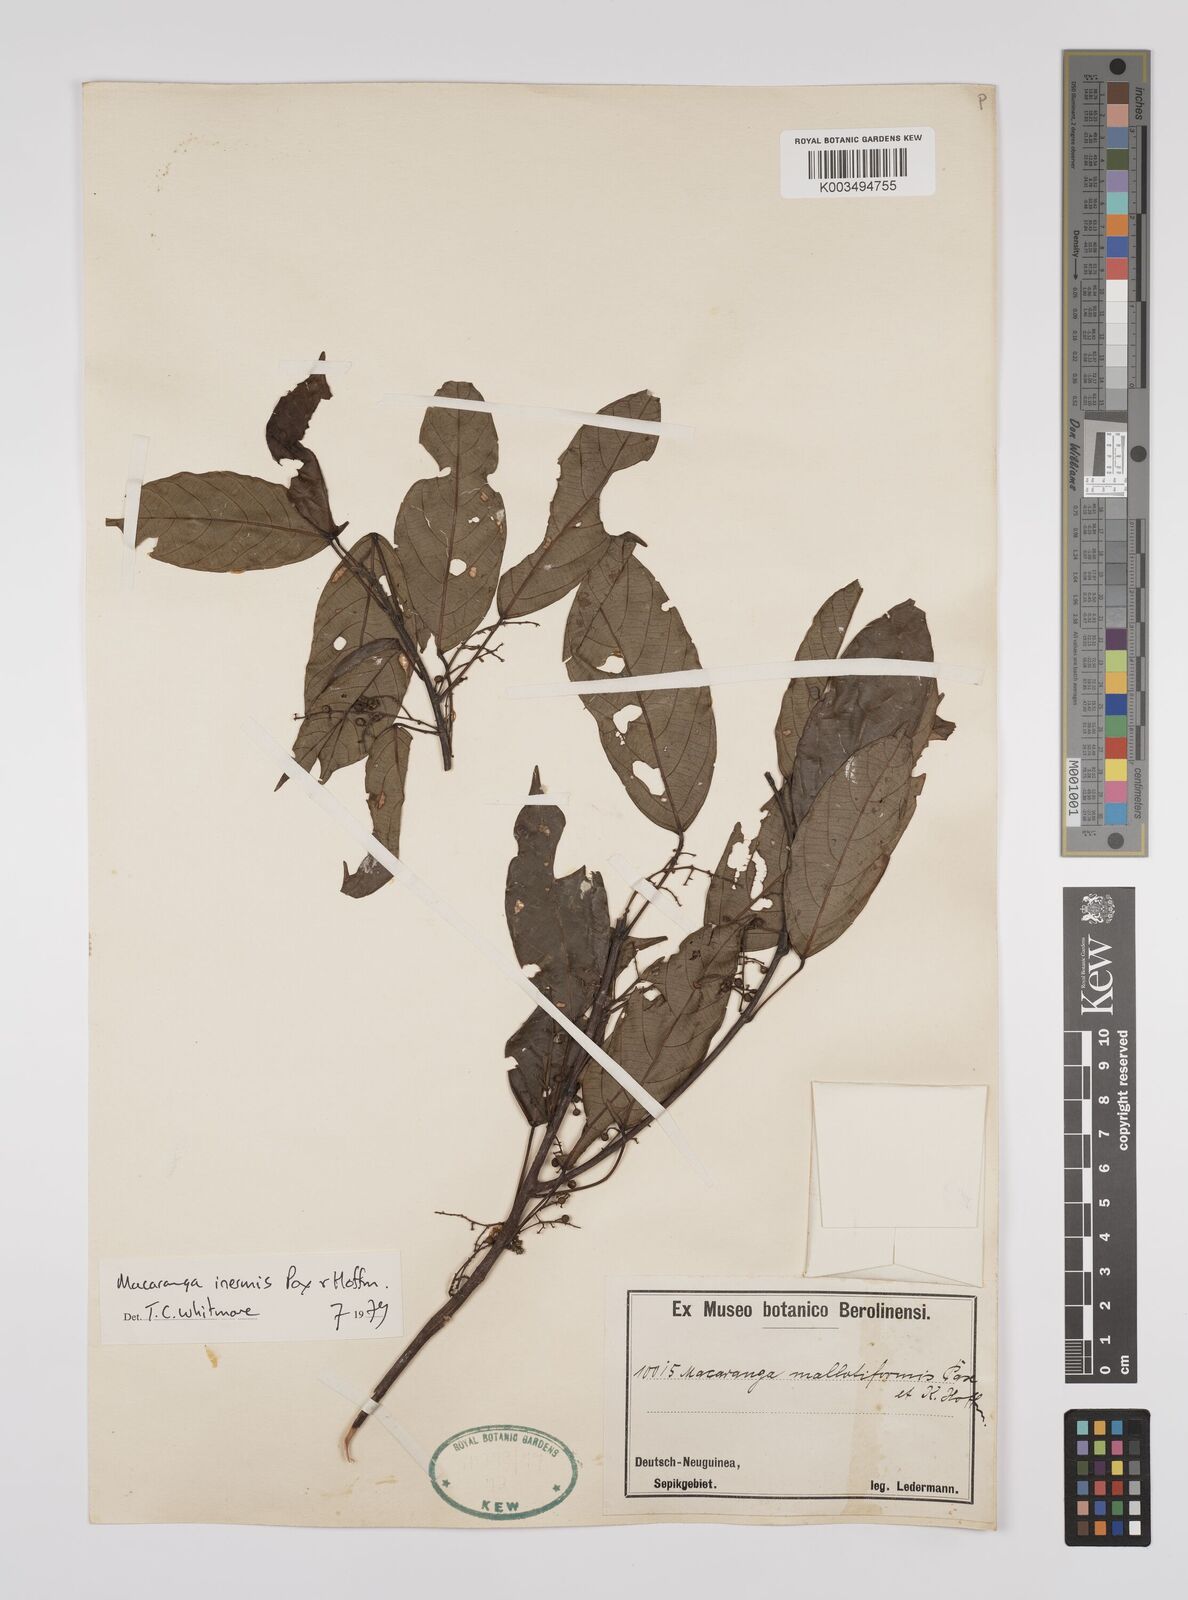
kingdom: Plantae
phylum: Tracheophyta
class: Magnoliopsida
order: Malpighiales
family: Euphorbiaceae
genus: Macaranga
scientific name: Macaranga inermis
